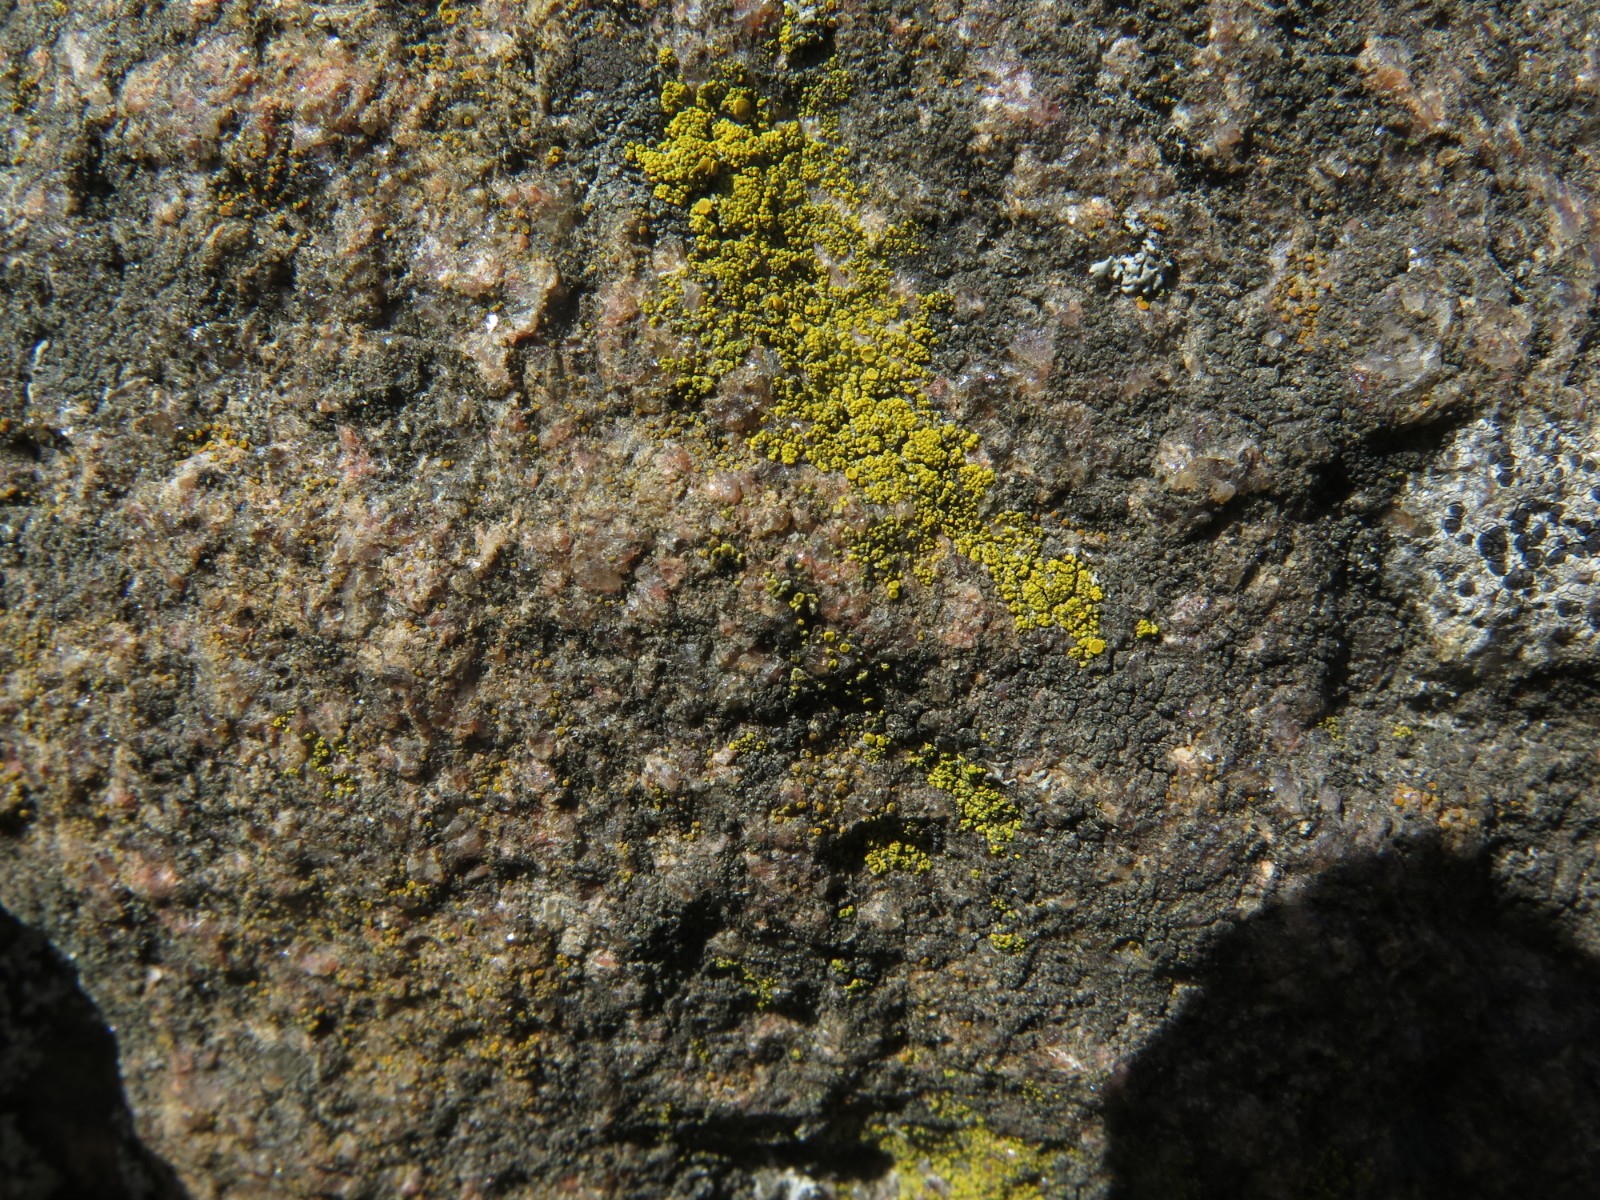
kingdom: Fungi
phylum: Ascomycota
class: Candelariomycetes
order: Candelariales
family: Candelariaceae
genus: Candelariella
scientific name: Candelariella vitellina
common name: almindelig æggeblommelav
